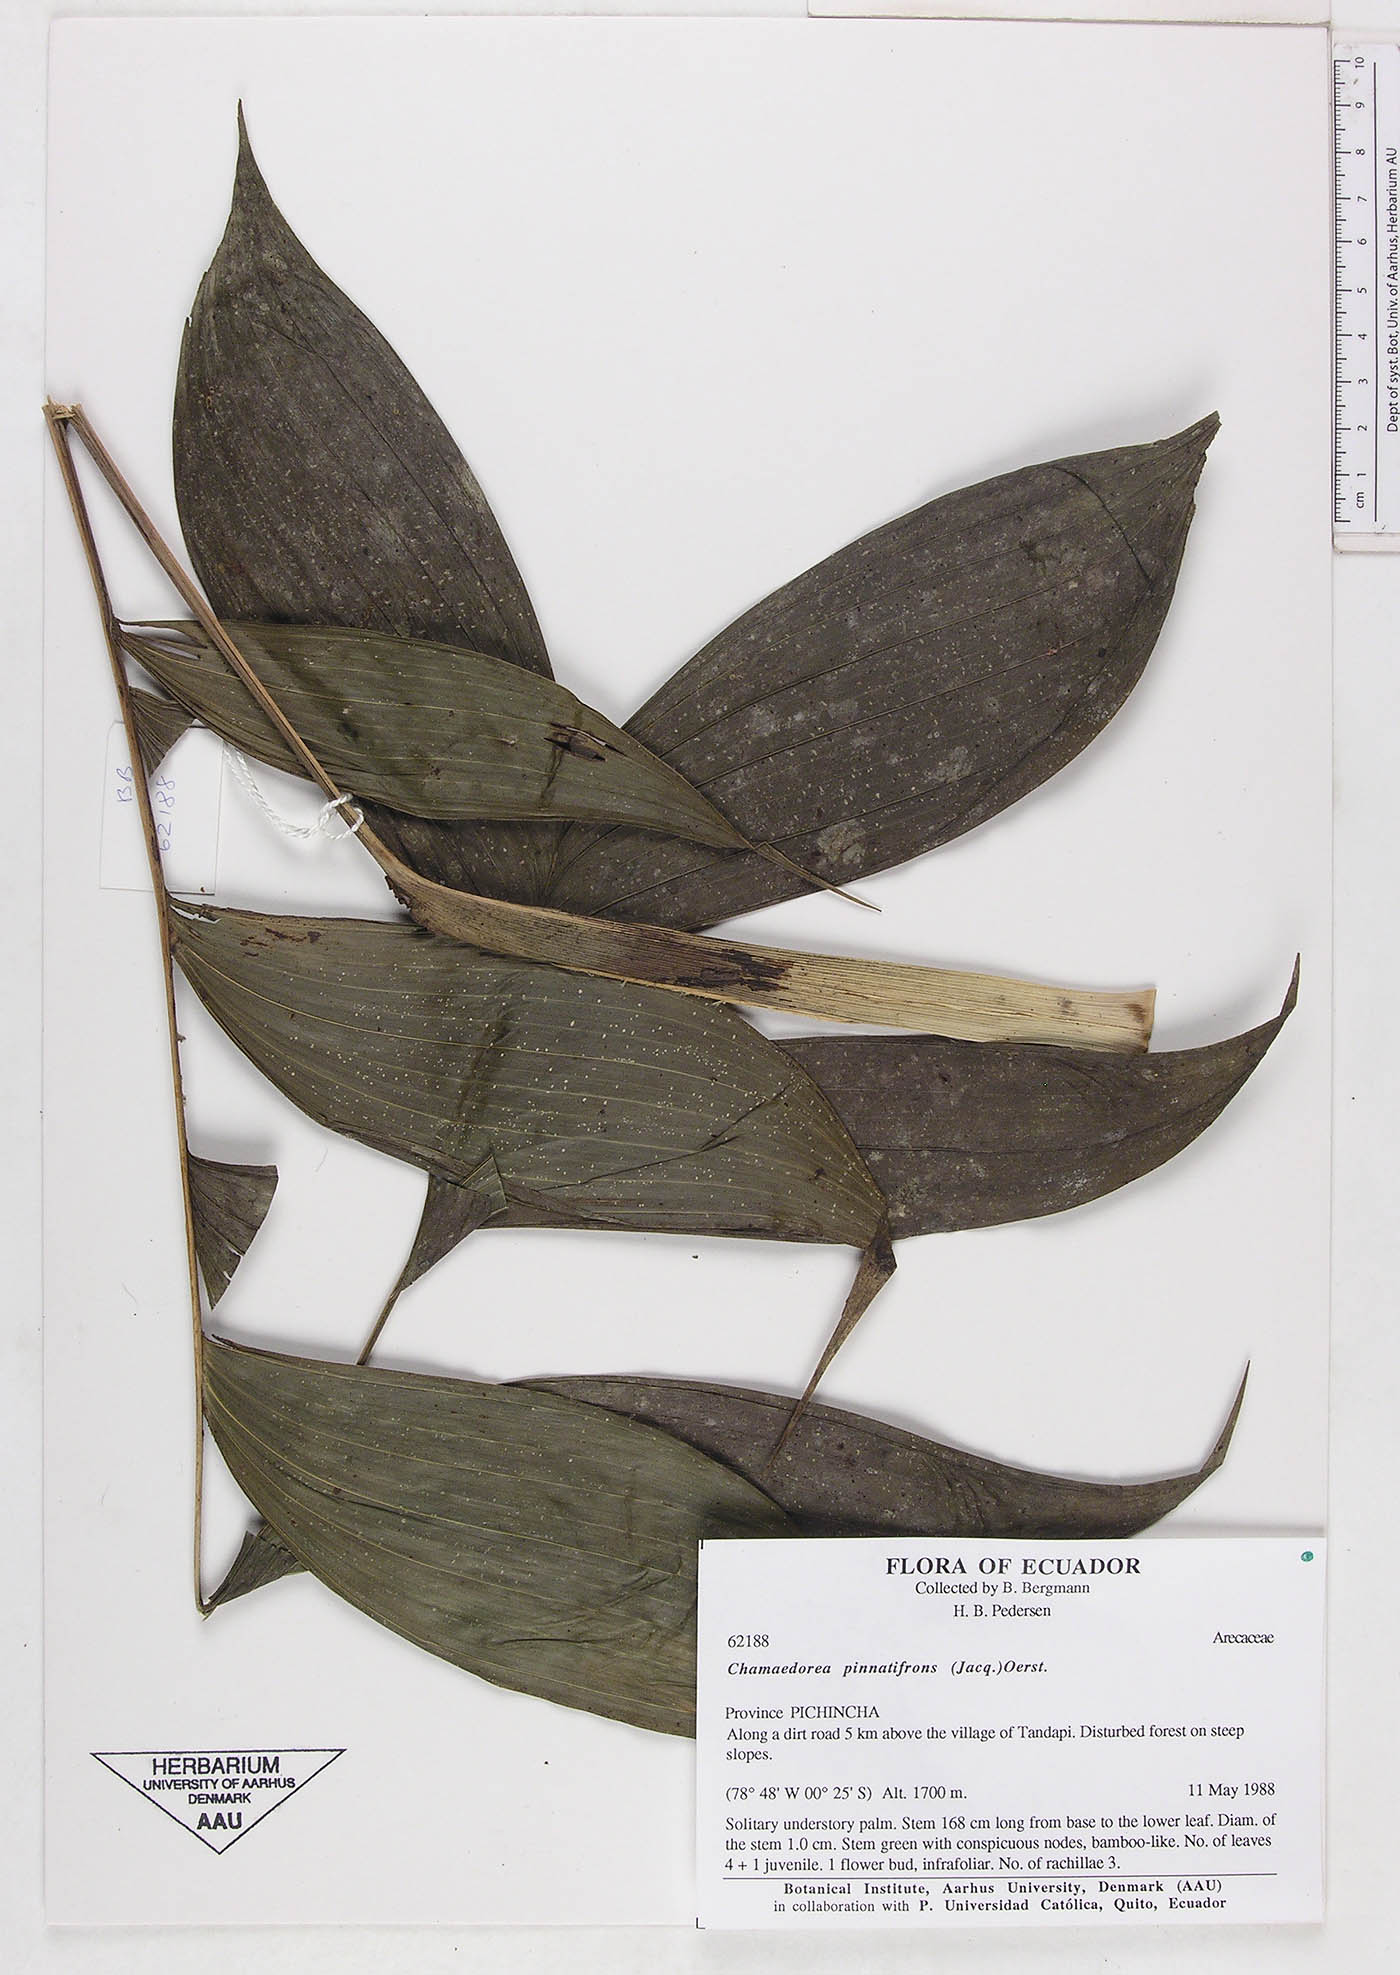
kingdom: Plantae
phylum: Tracheophyta
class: Liliopsida
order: Arecales
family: Arecaceae
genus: Chamaedorea
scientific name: Chamaedorea pinnatifrons
